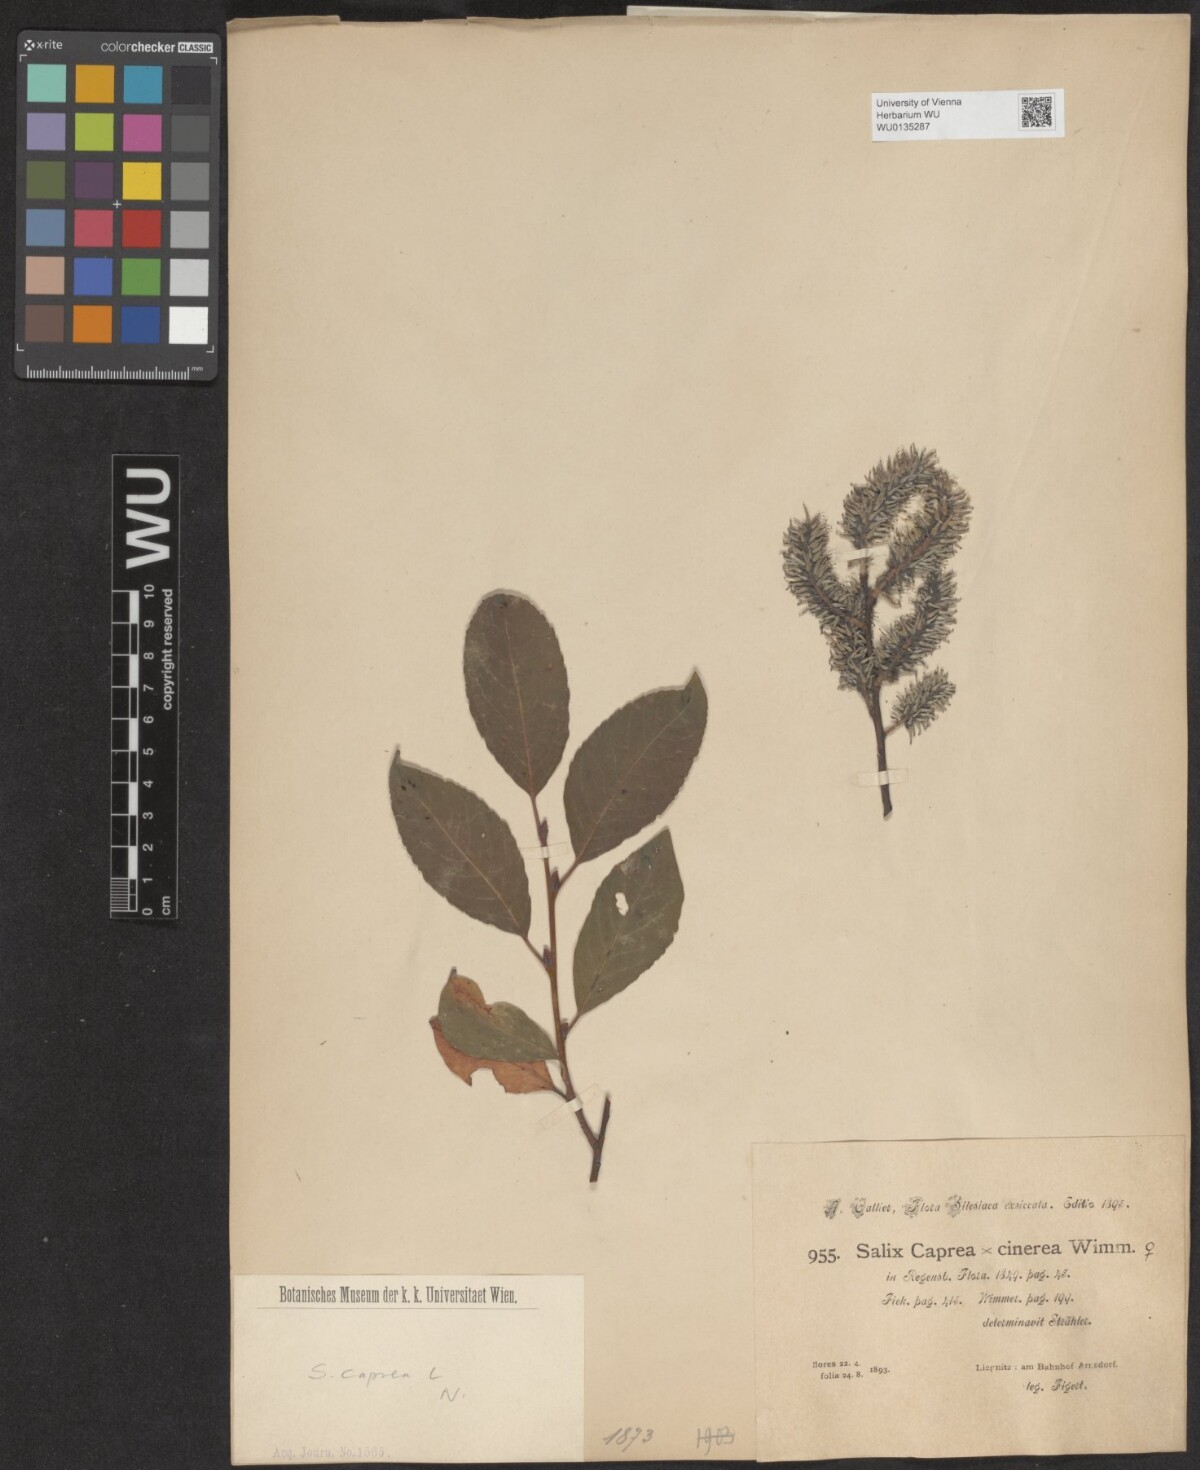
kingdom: Plantae
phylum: Tracheophyta
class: Magnoliopsida
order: Malpighiales
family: Salicaceae
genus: Salix
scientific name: Salix caprea
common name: Goat willow
